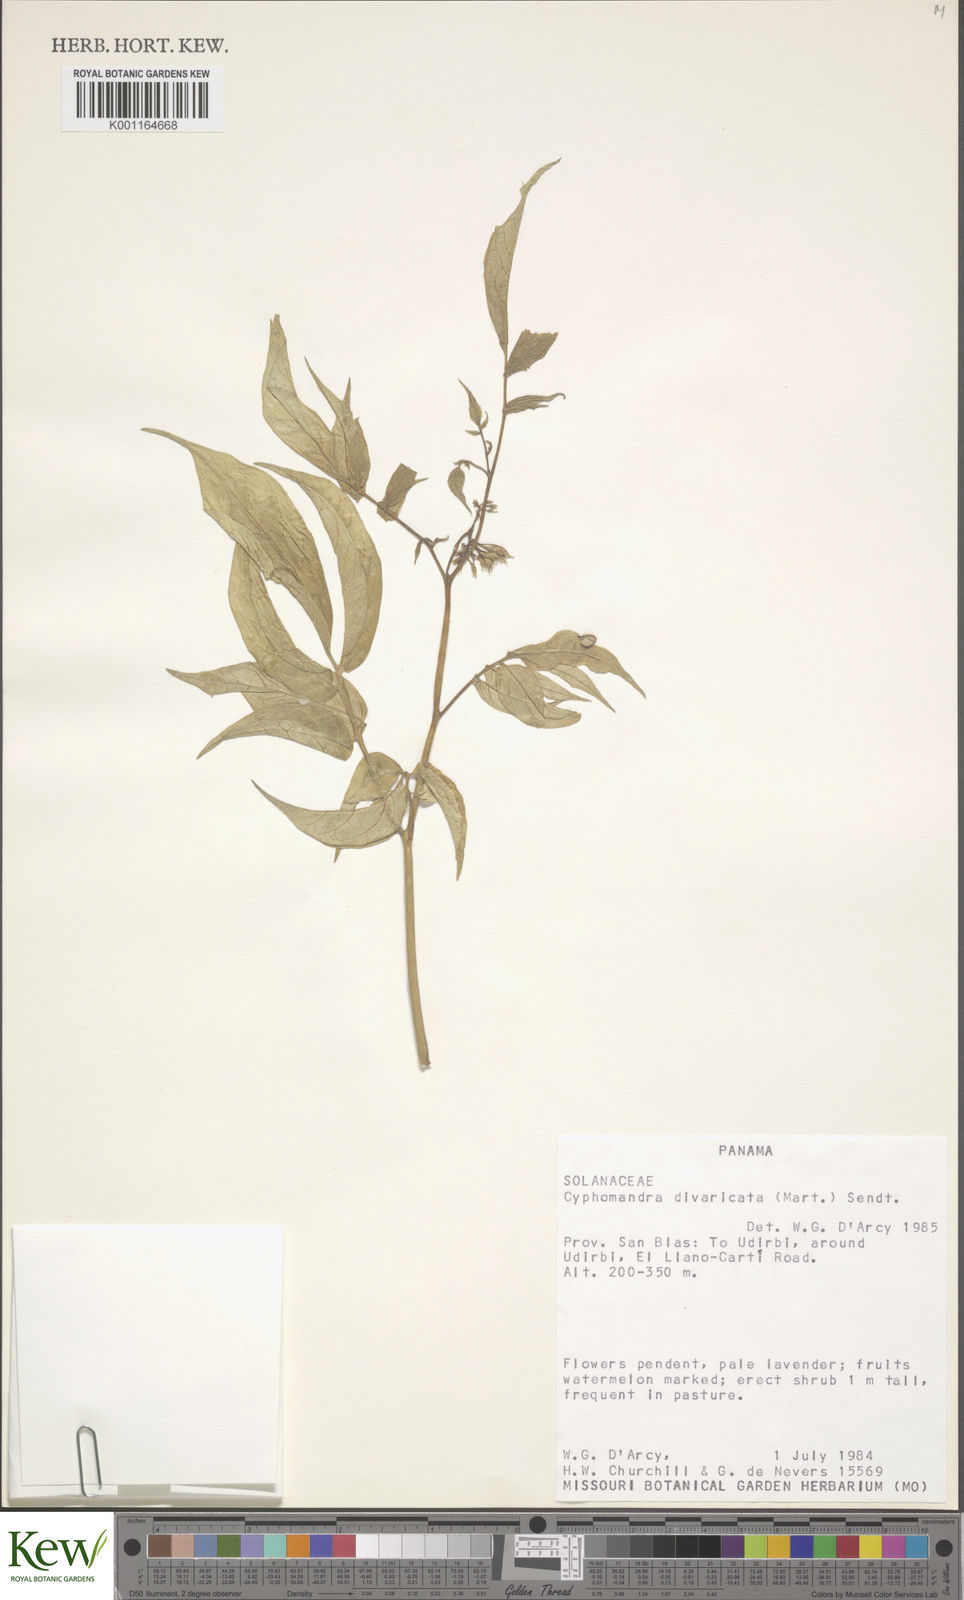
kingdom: Plantae
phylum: Tracheophyta
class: Magnoliopsida
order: Solanales
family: Solanaceae
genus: Solanum
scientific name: Solanum melissarum
